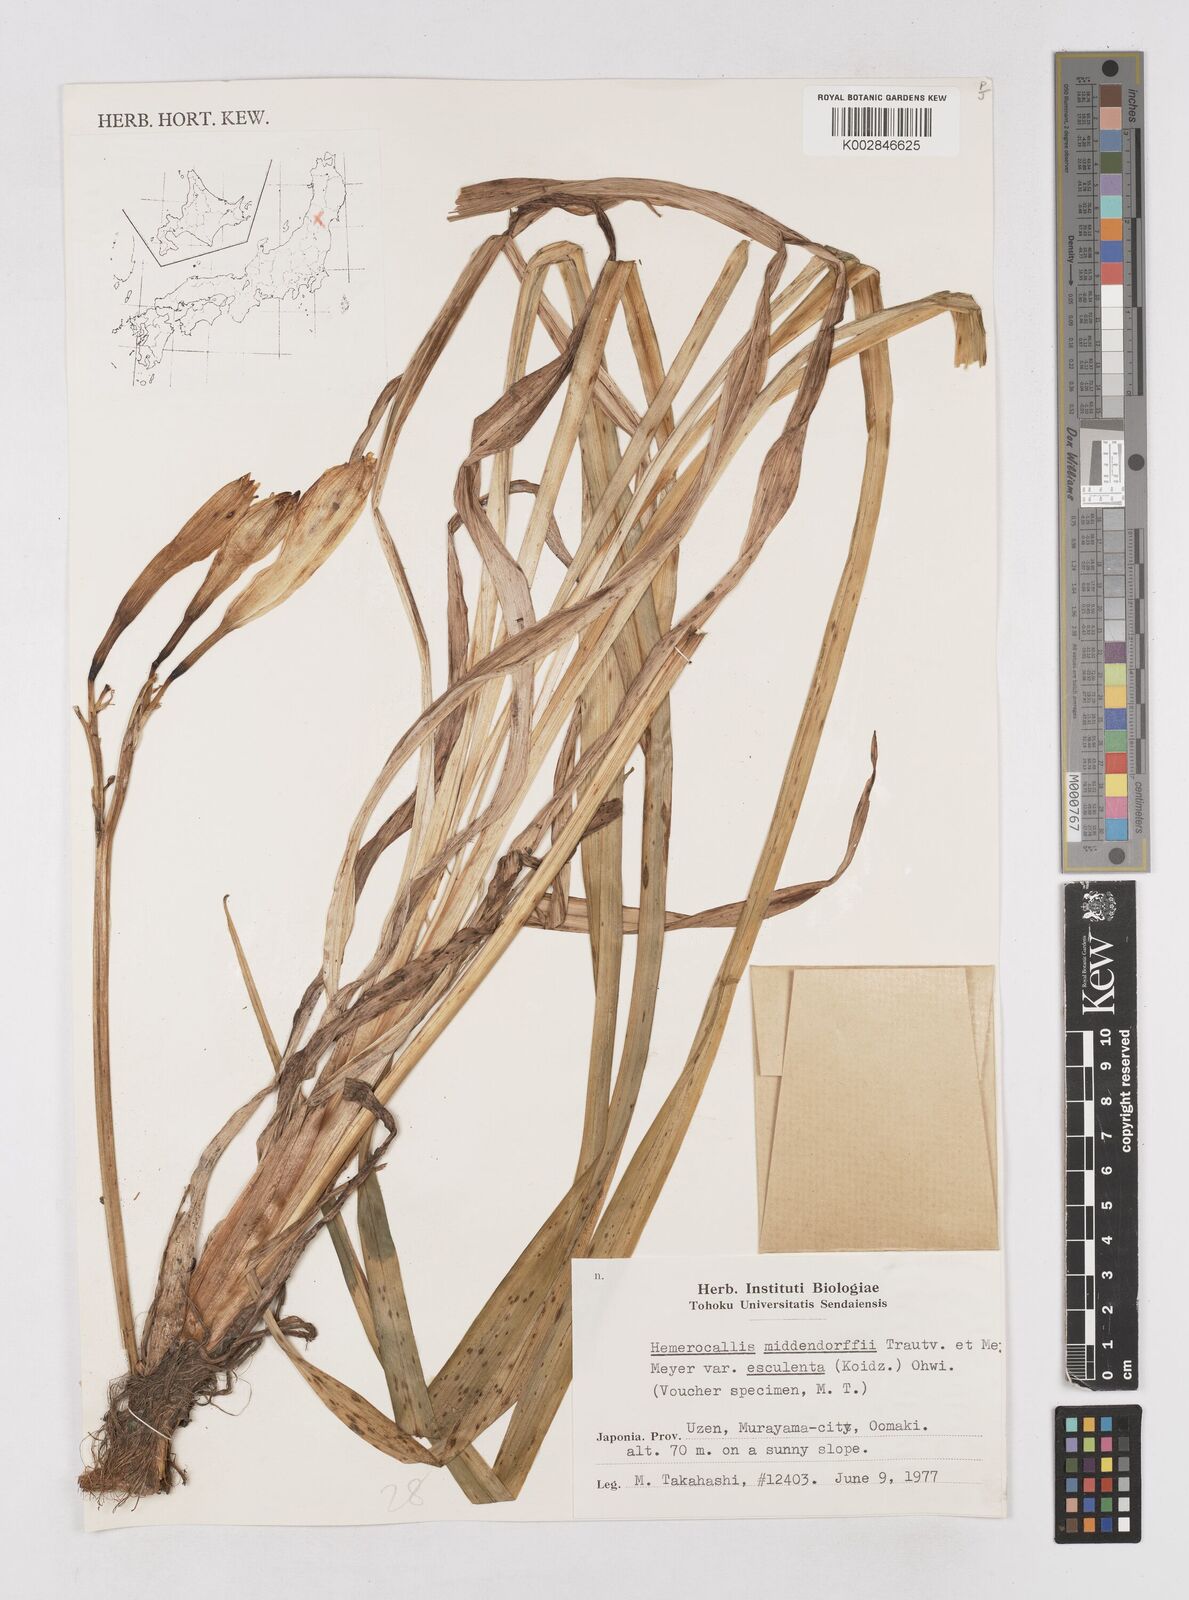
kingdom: Plantae
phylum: Tracheophyta
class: Liliopsida
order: Asparagales
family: Asphodelaceae
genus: Hemerocallis
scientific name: Hemerocallis middendorffii
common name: Amur day-lily
